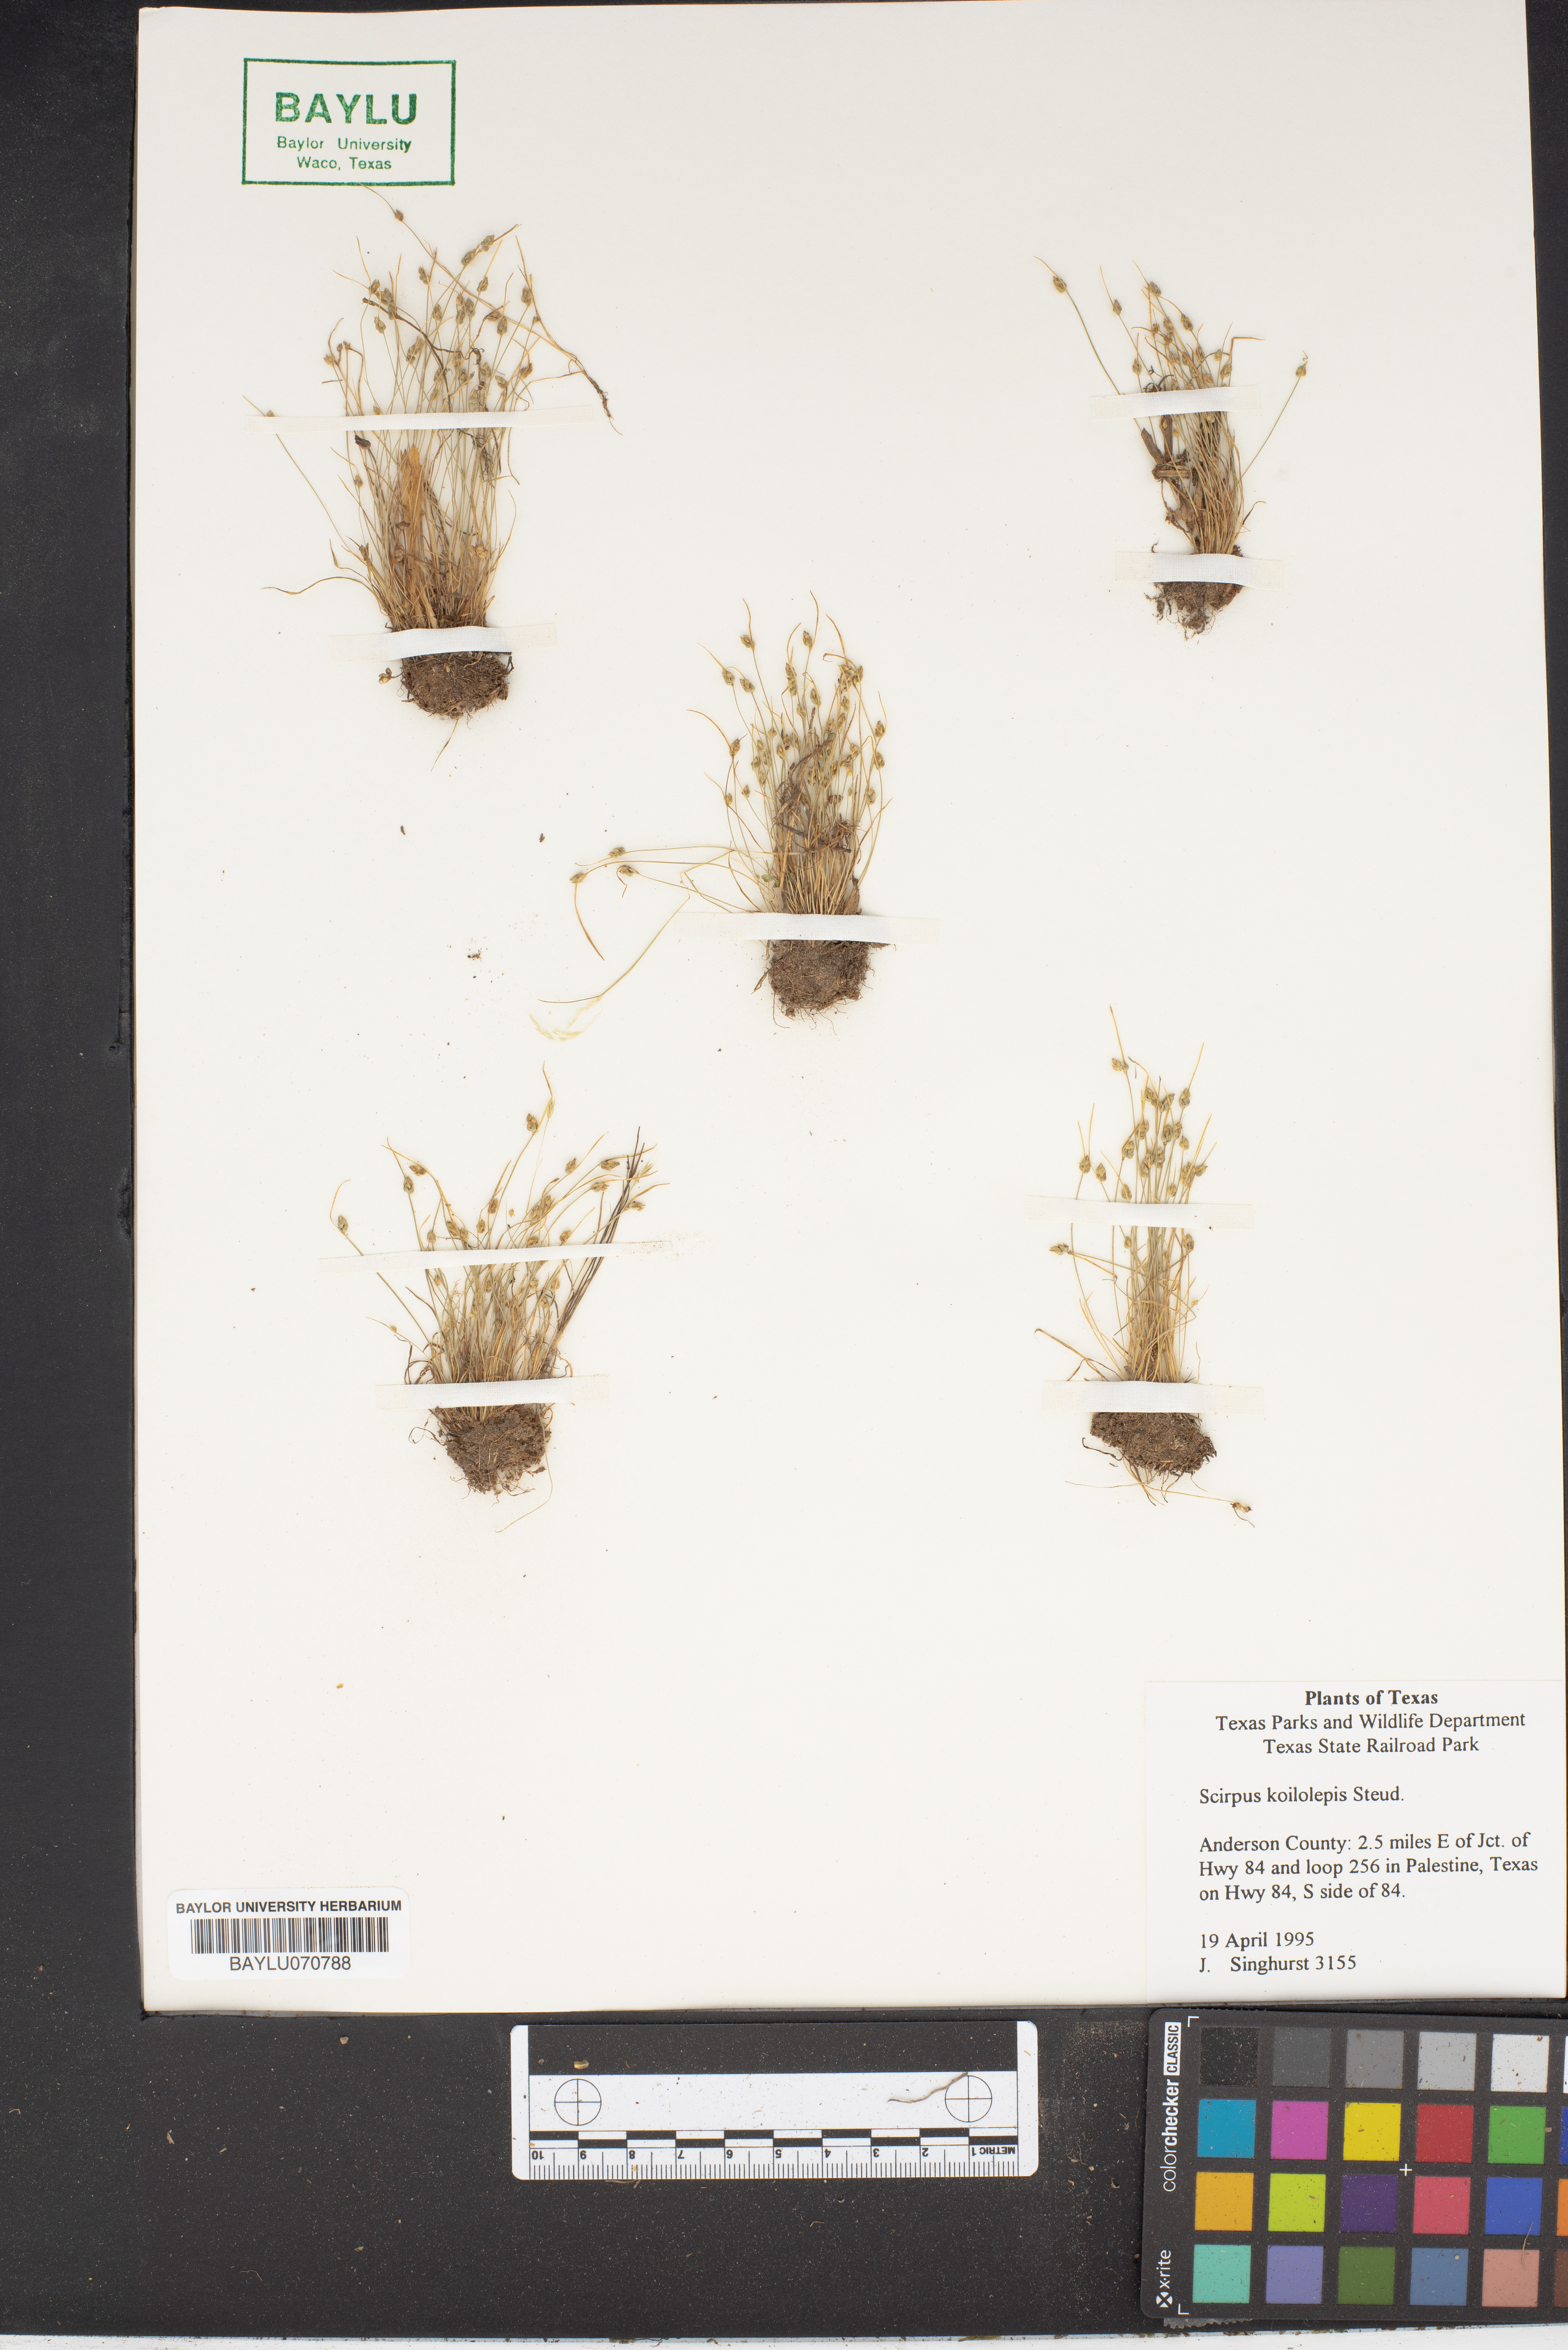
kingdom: Plantae
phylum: Tracheophyta
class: Liliopsida
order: Poales
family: Cyperaceae
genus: Isolepis
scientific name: Isolepis carinata
